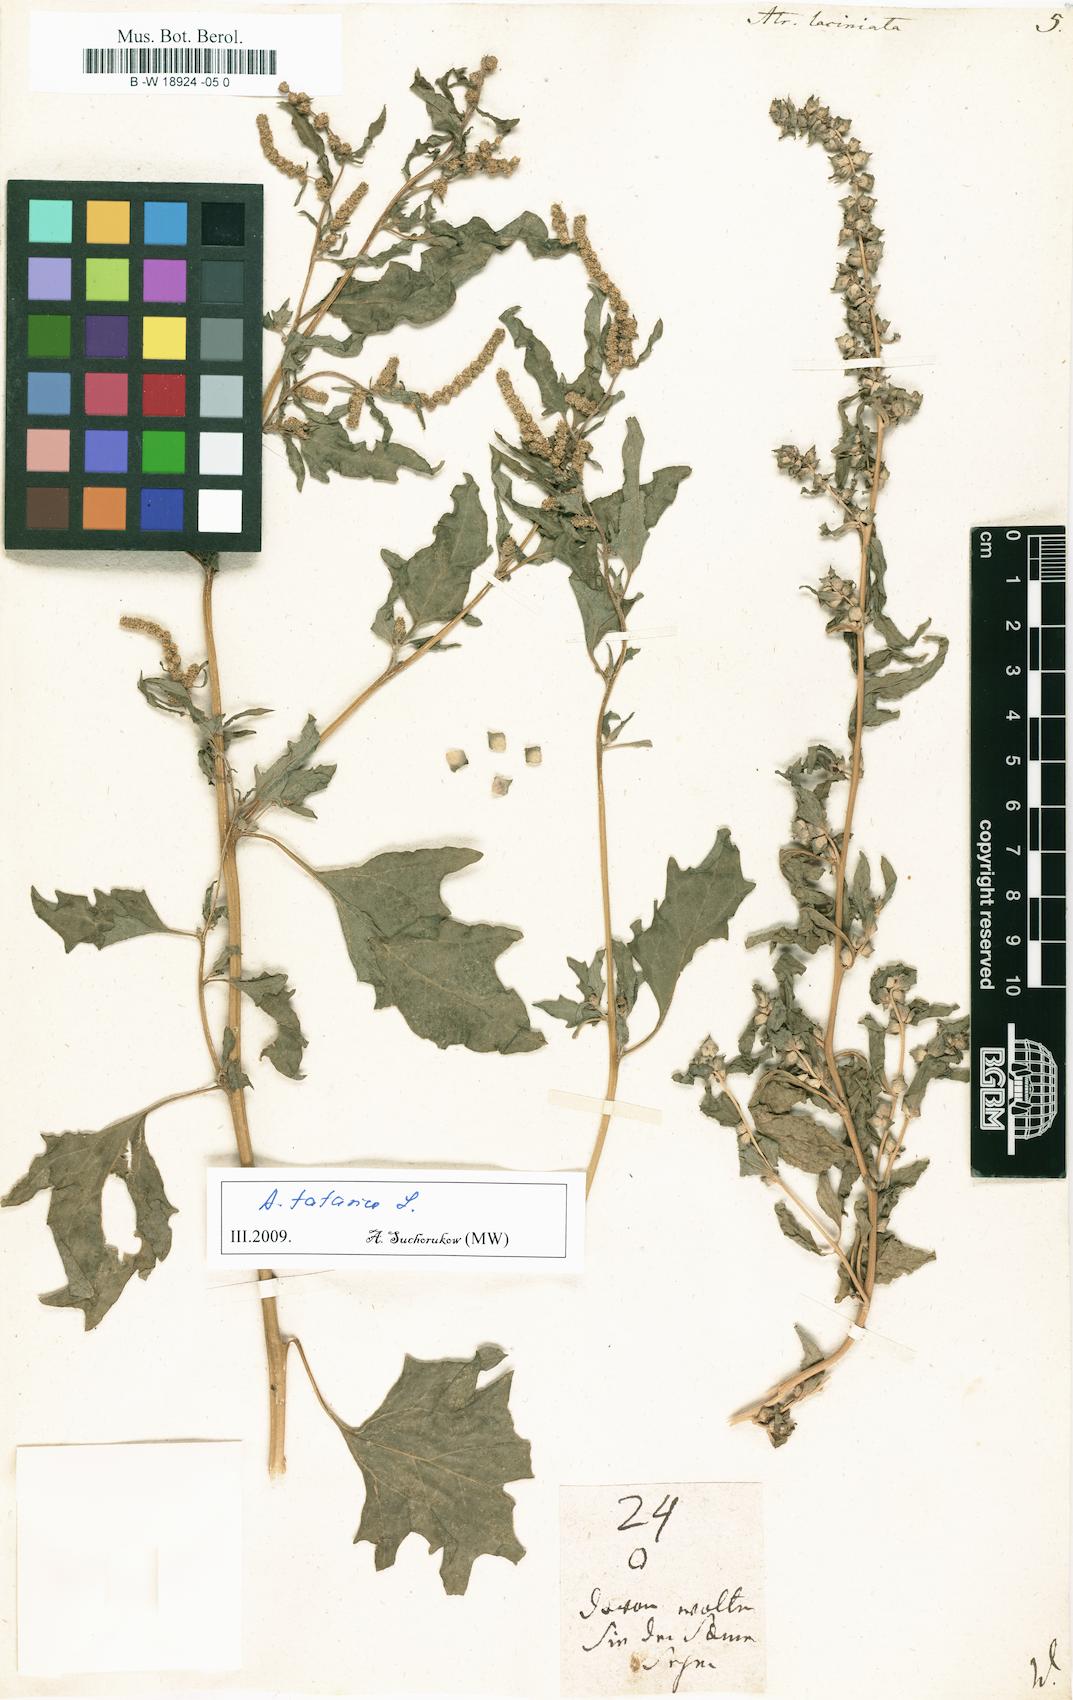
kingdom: Plantae
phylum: Tracheophyta
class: Magnoliopsida
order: Caryophyllales
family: Amaranthaceae
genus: Atriplex
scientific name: Atriplex laciniata
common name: Frosted orache
